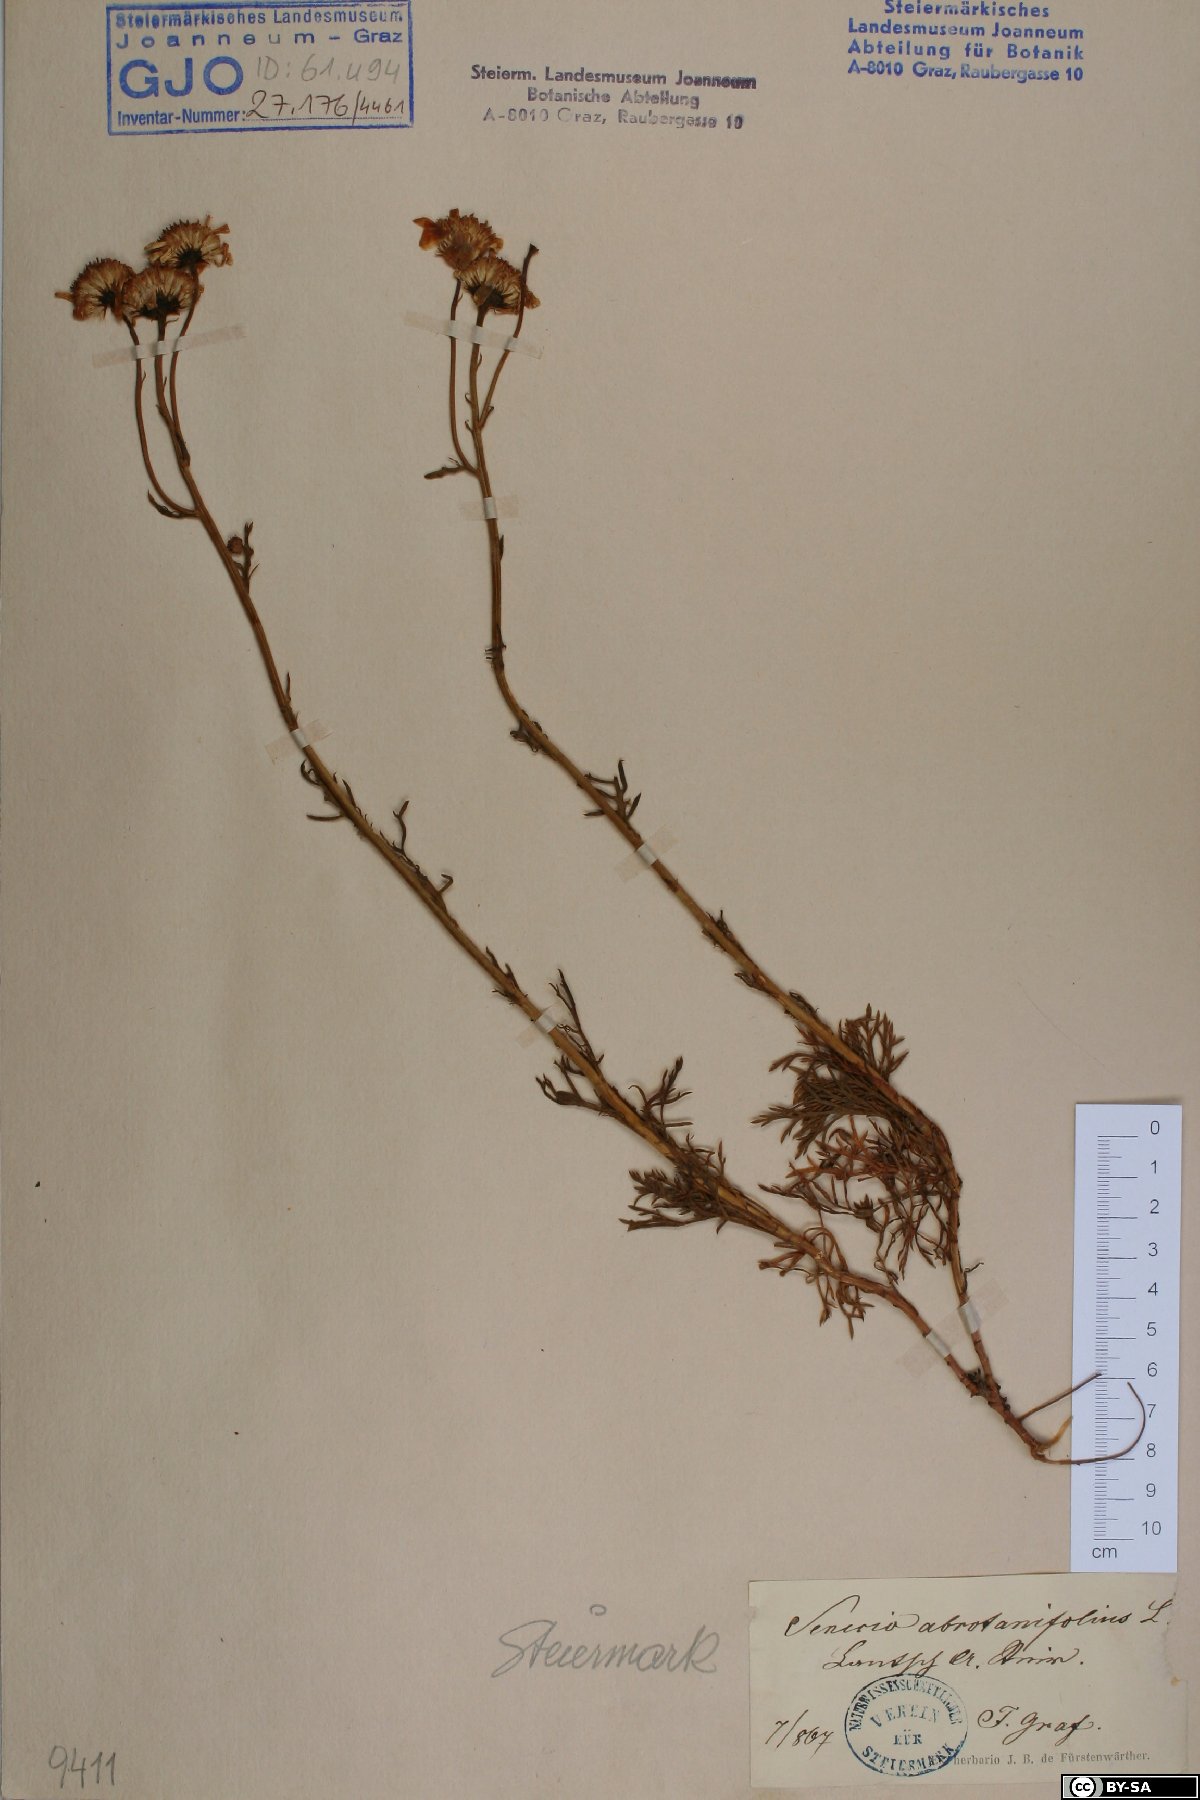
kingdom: Plantae
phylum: Tracheophyta
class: Magnoliopsida
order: Asterales
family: Asteraceae
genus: Jacobaea
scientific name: Jacobaea abrotanifolia
